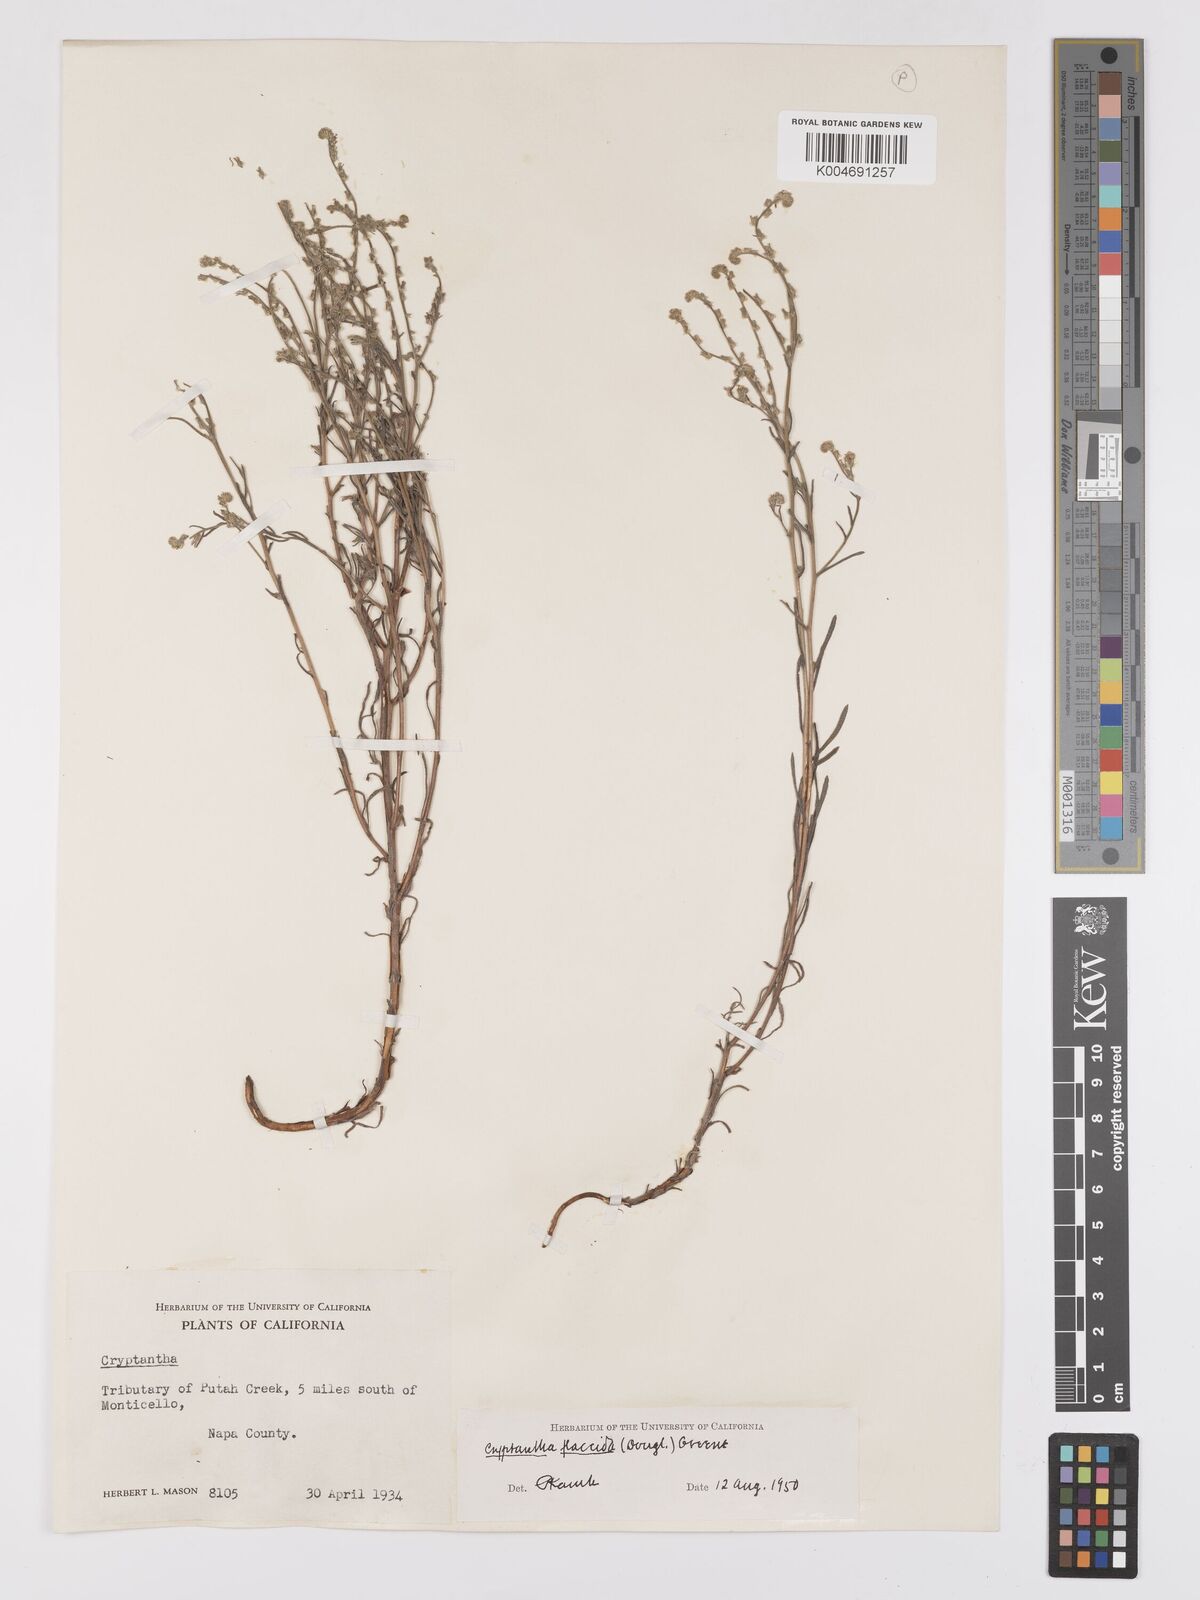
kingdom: Plantae
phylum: Tracheophyta
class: Magnoliopsida
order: Boraginales
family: Boraginaceae
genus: Cryptantha
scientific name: Cryptantha flaccida
